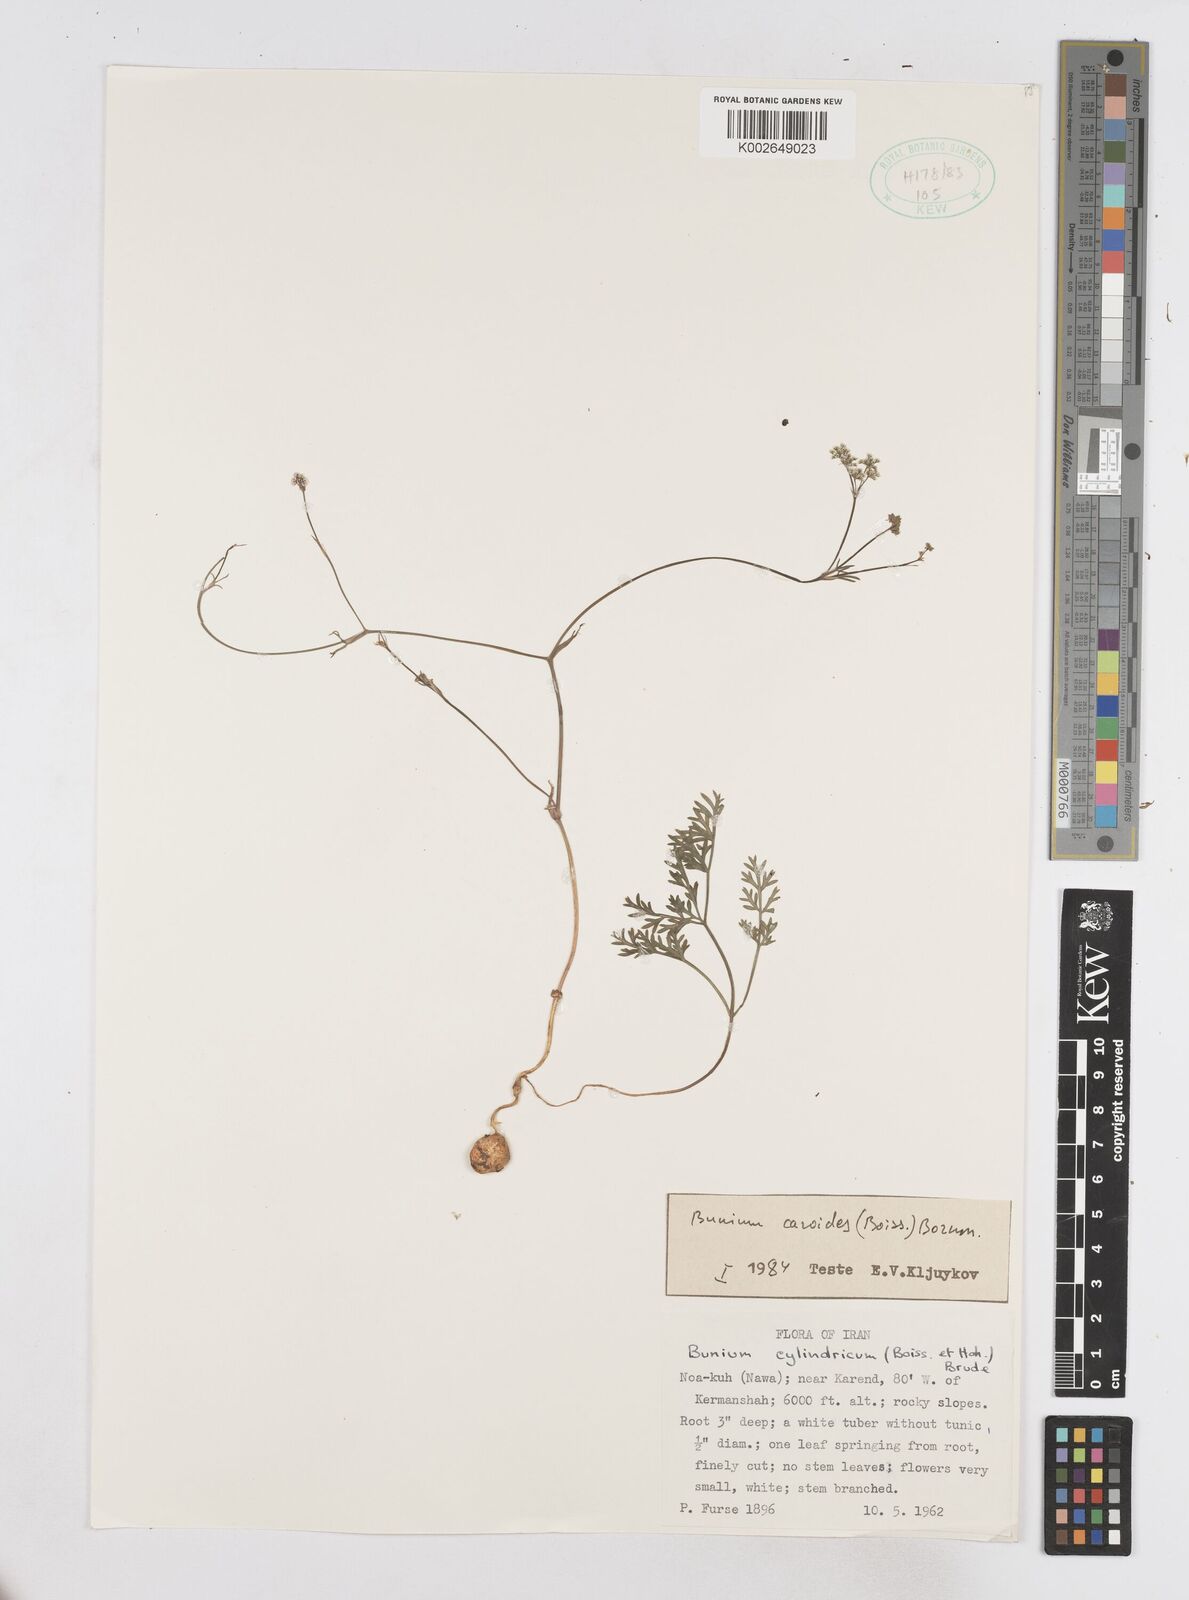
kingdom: Plantae
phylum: Tracheophyta
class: Magnoliopsida
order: Apiales
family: Apiaceae
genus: Elwendia
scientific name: Elwendia caroides
